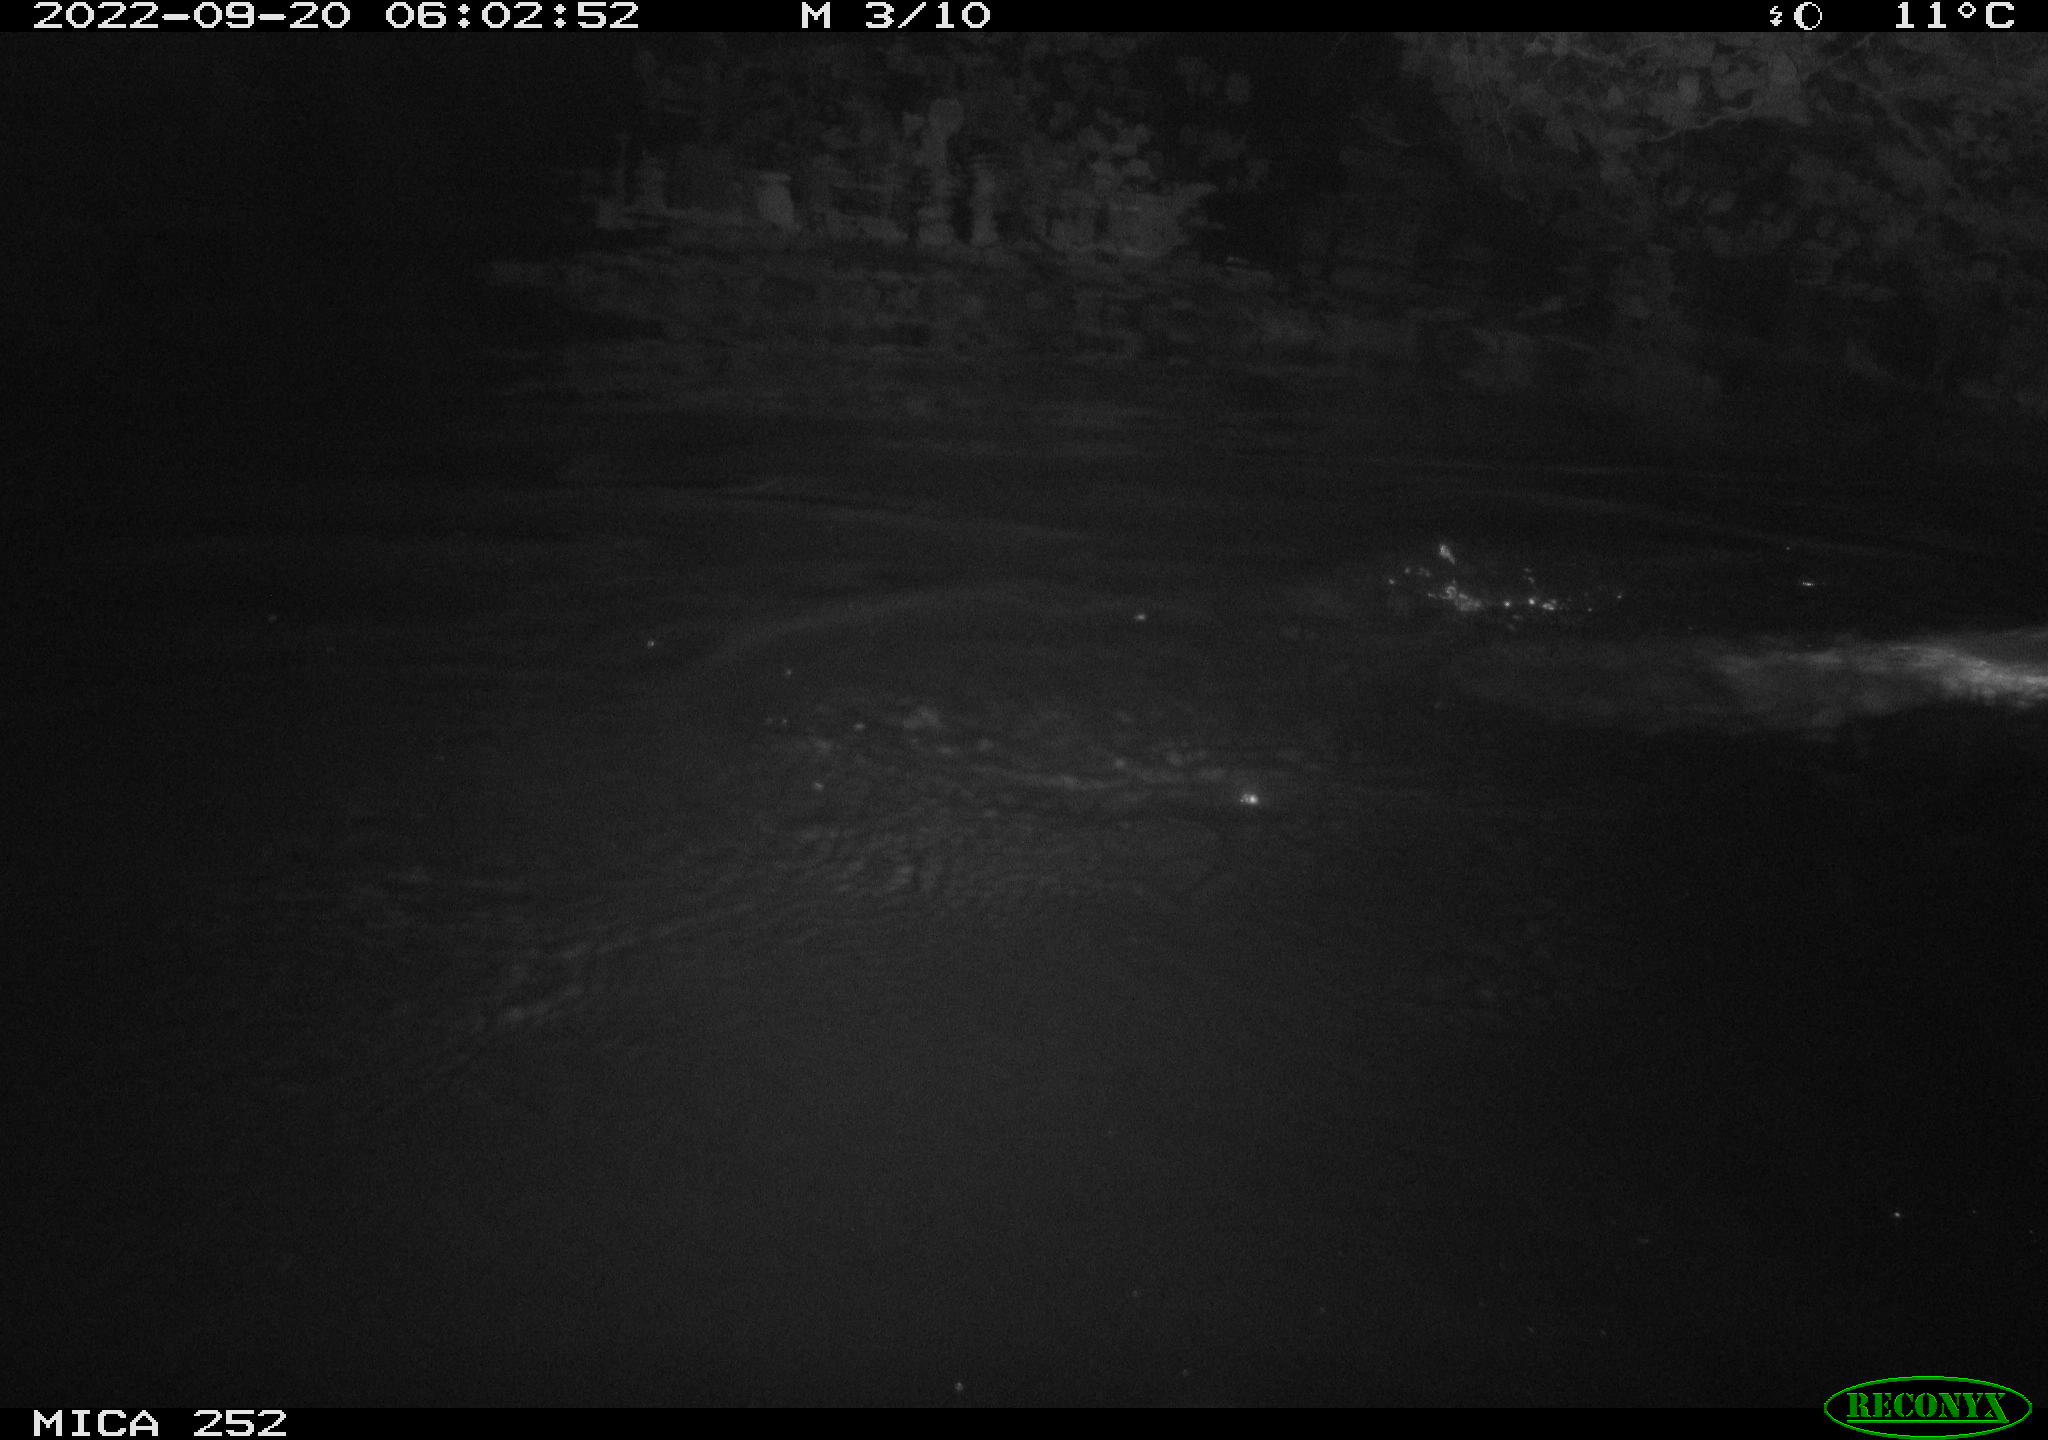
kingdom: Animalia
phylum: Chordata
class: Mammalia
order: Rodentia
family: Castoridae
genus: Castor
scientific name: Castor fiber
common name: Eurasian beaver
